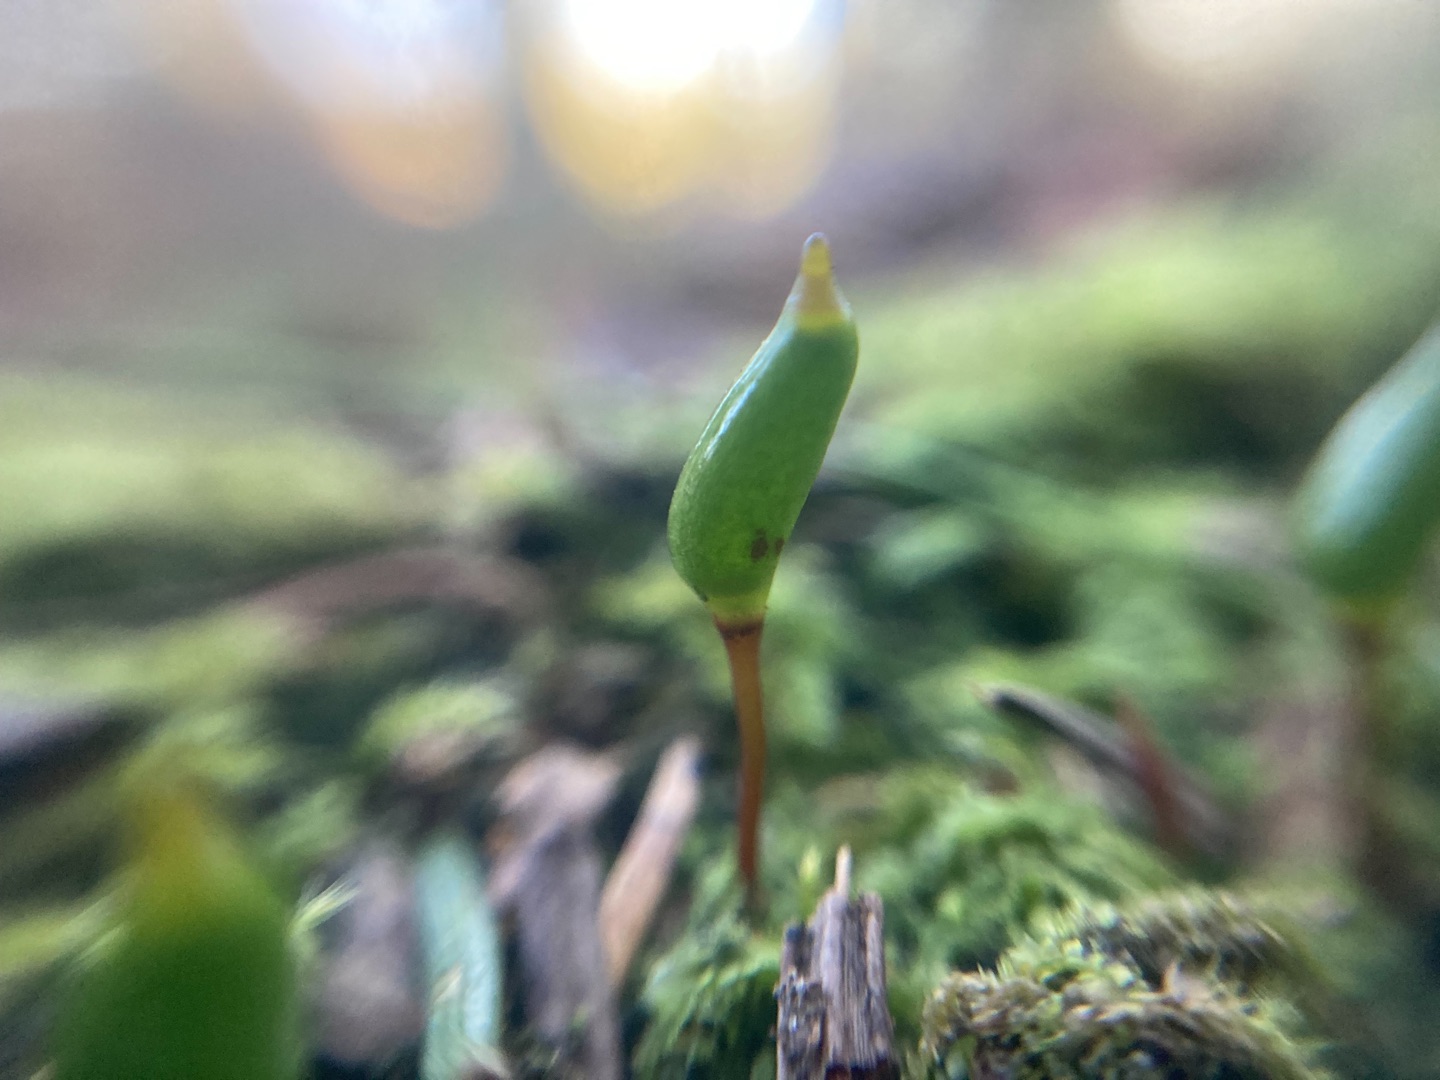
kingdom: Plantae
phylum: Bryophyta
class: Bryopsida
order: Buxbaumiales
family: Buxbaumiaceae
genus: Buxbaumia
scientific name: Buxbaumia viridis
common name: Grøn buxbaumia
